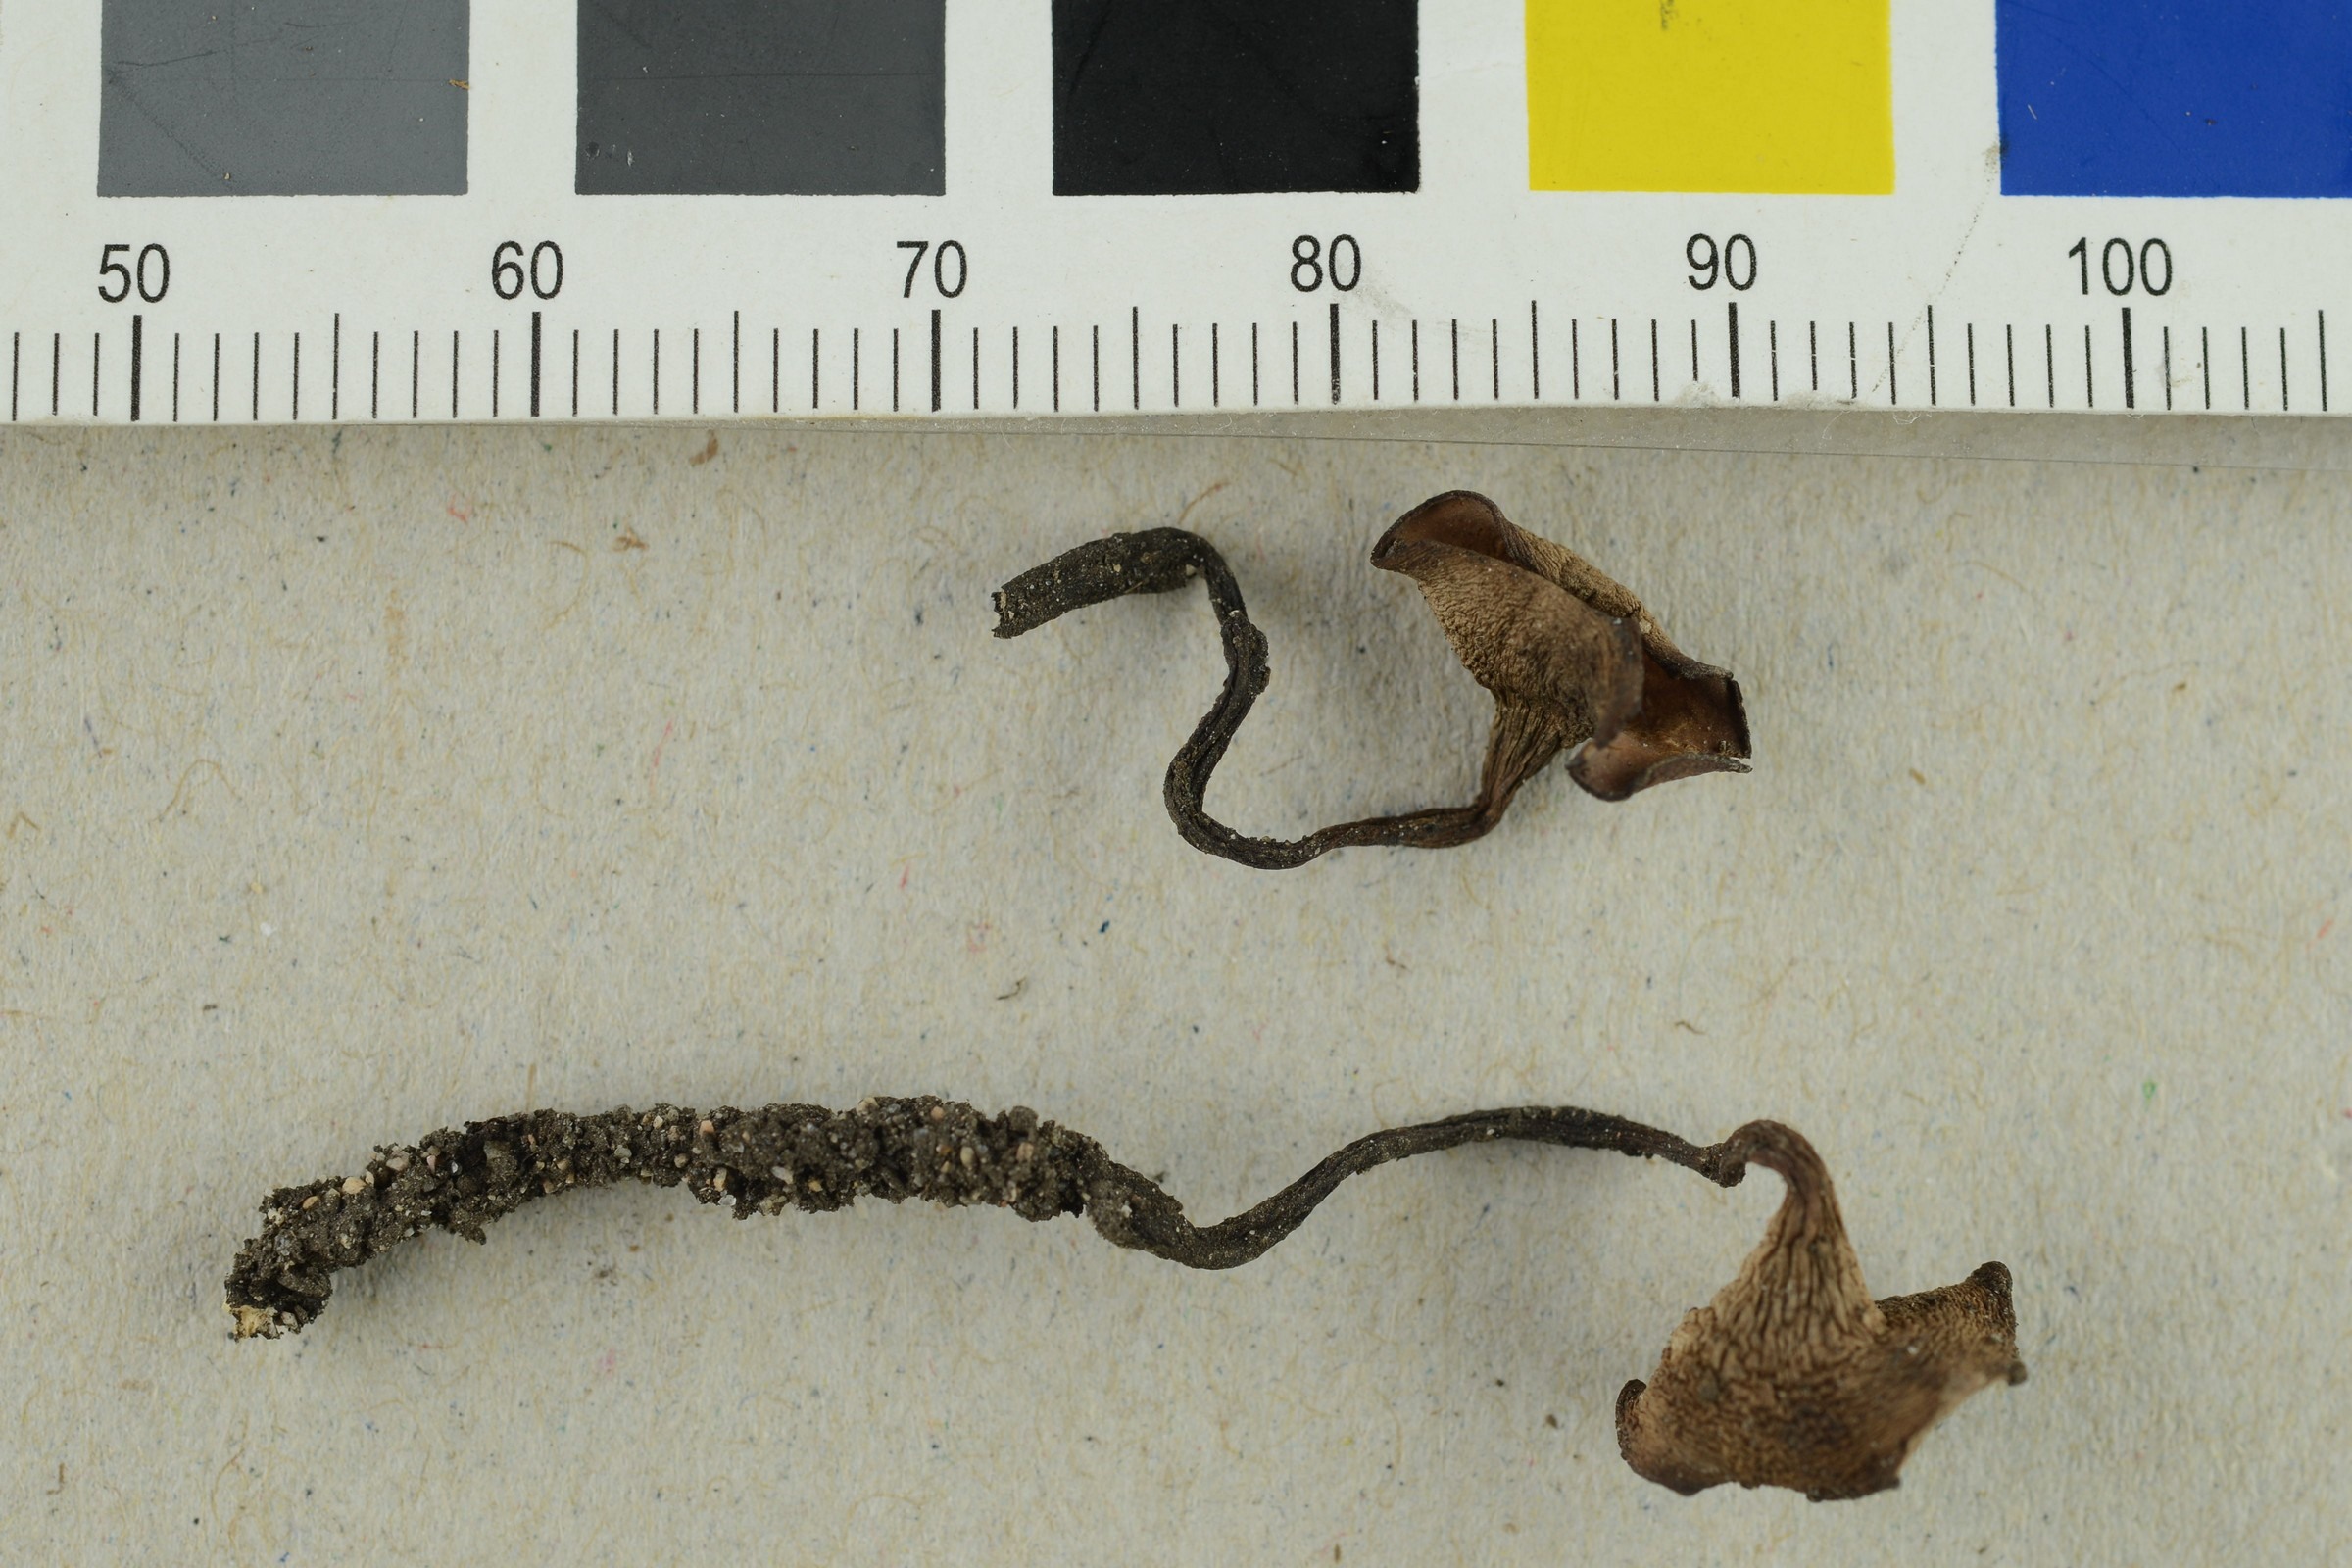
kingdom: Fungi
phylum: Ascomycota
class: Leotiomycetes
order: Helotiales
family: Sclerotiniaceae
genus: Dumontinia
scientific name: Dumontinia tuberosa
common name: Anemone cup
